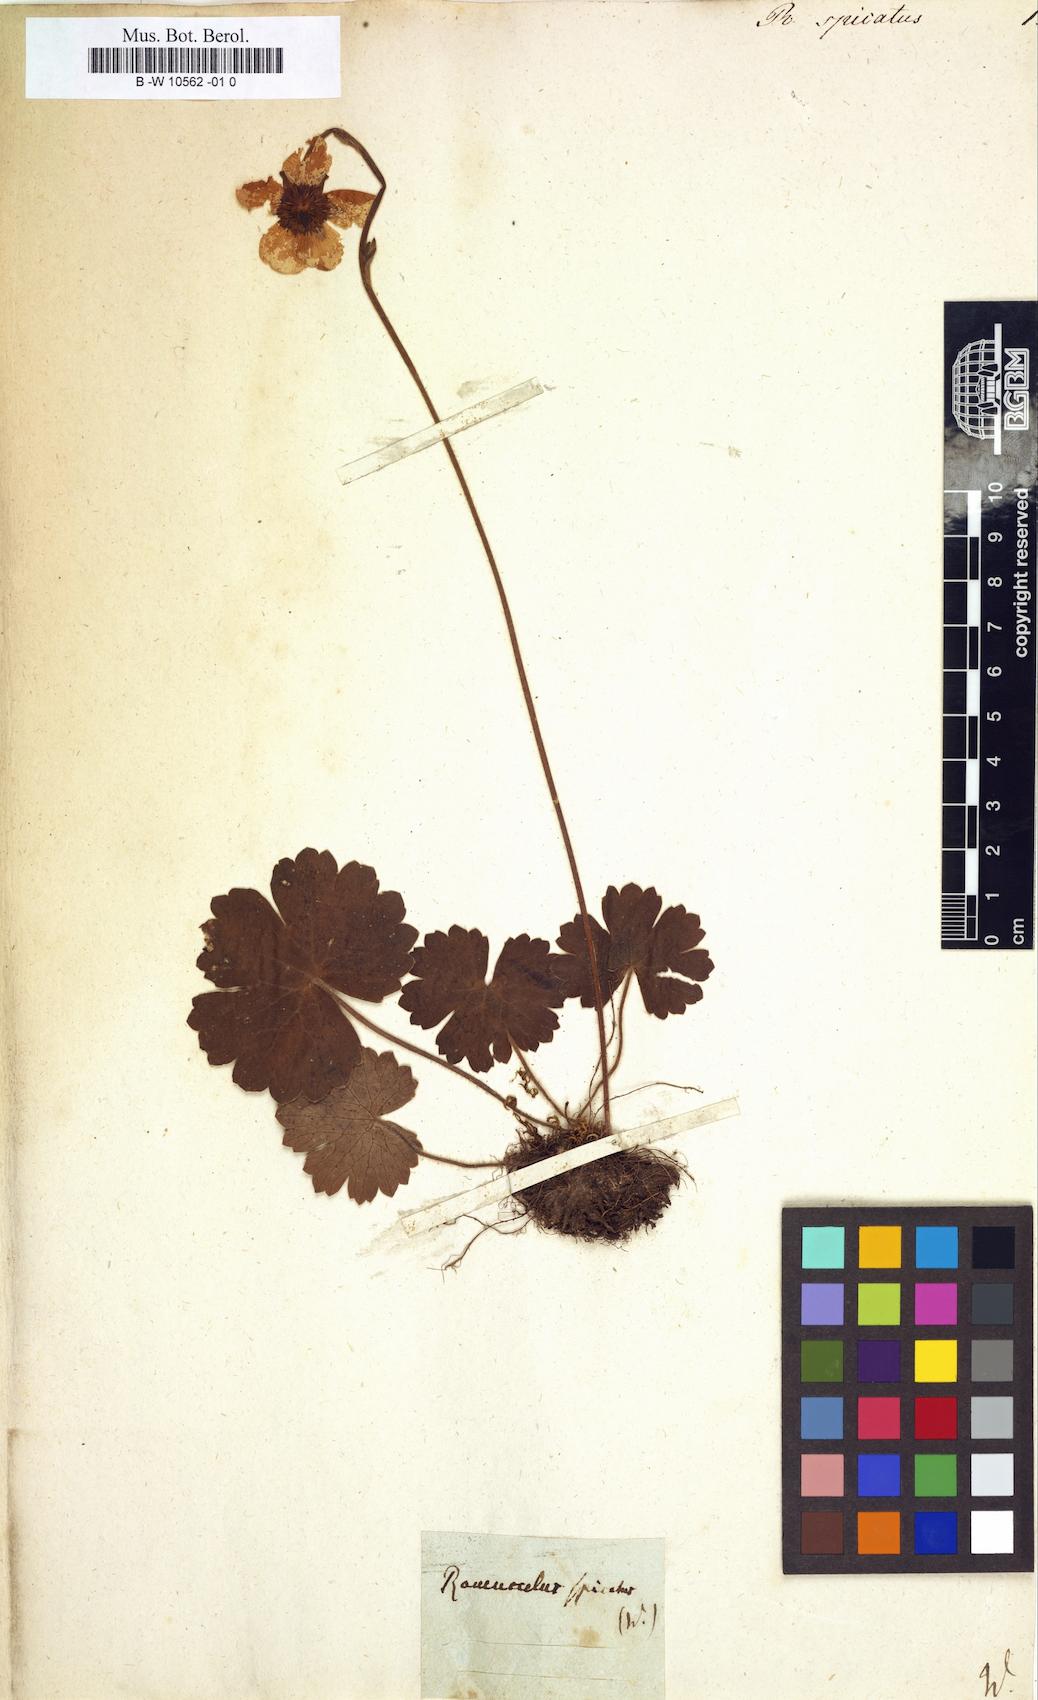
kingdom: Plantae
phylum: Tracheophyta
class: Magnoliopsida
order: Ranunculales
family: Ranunculaceae
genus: Ranunculus
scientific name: Ranunculus spicatus
